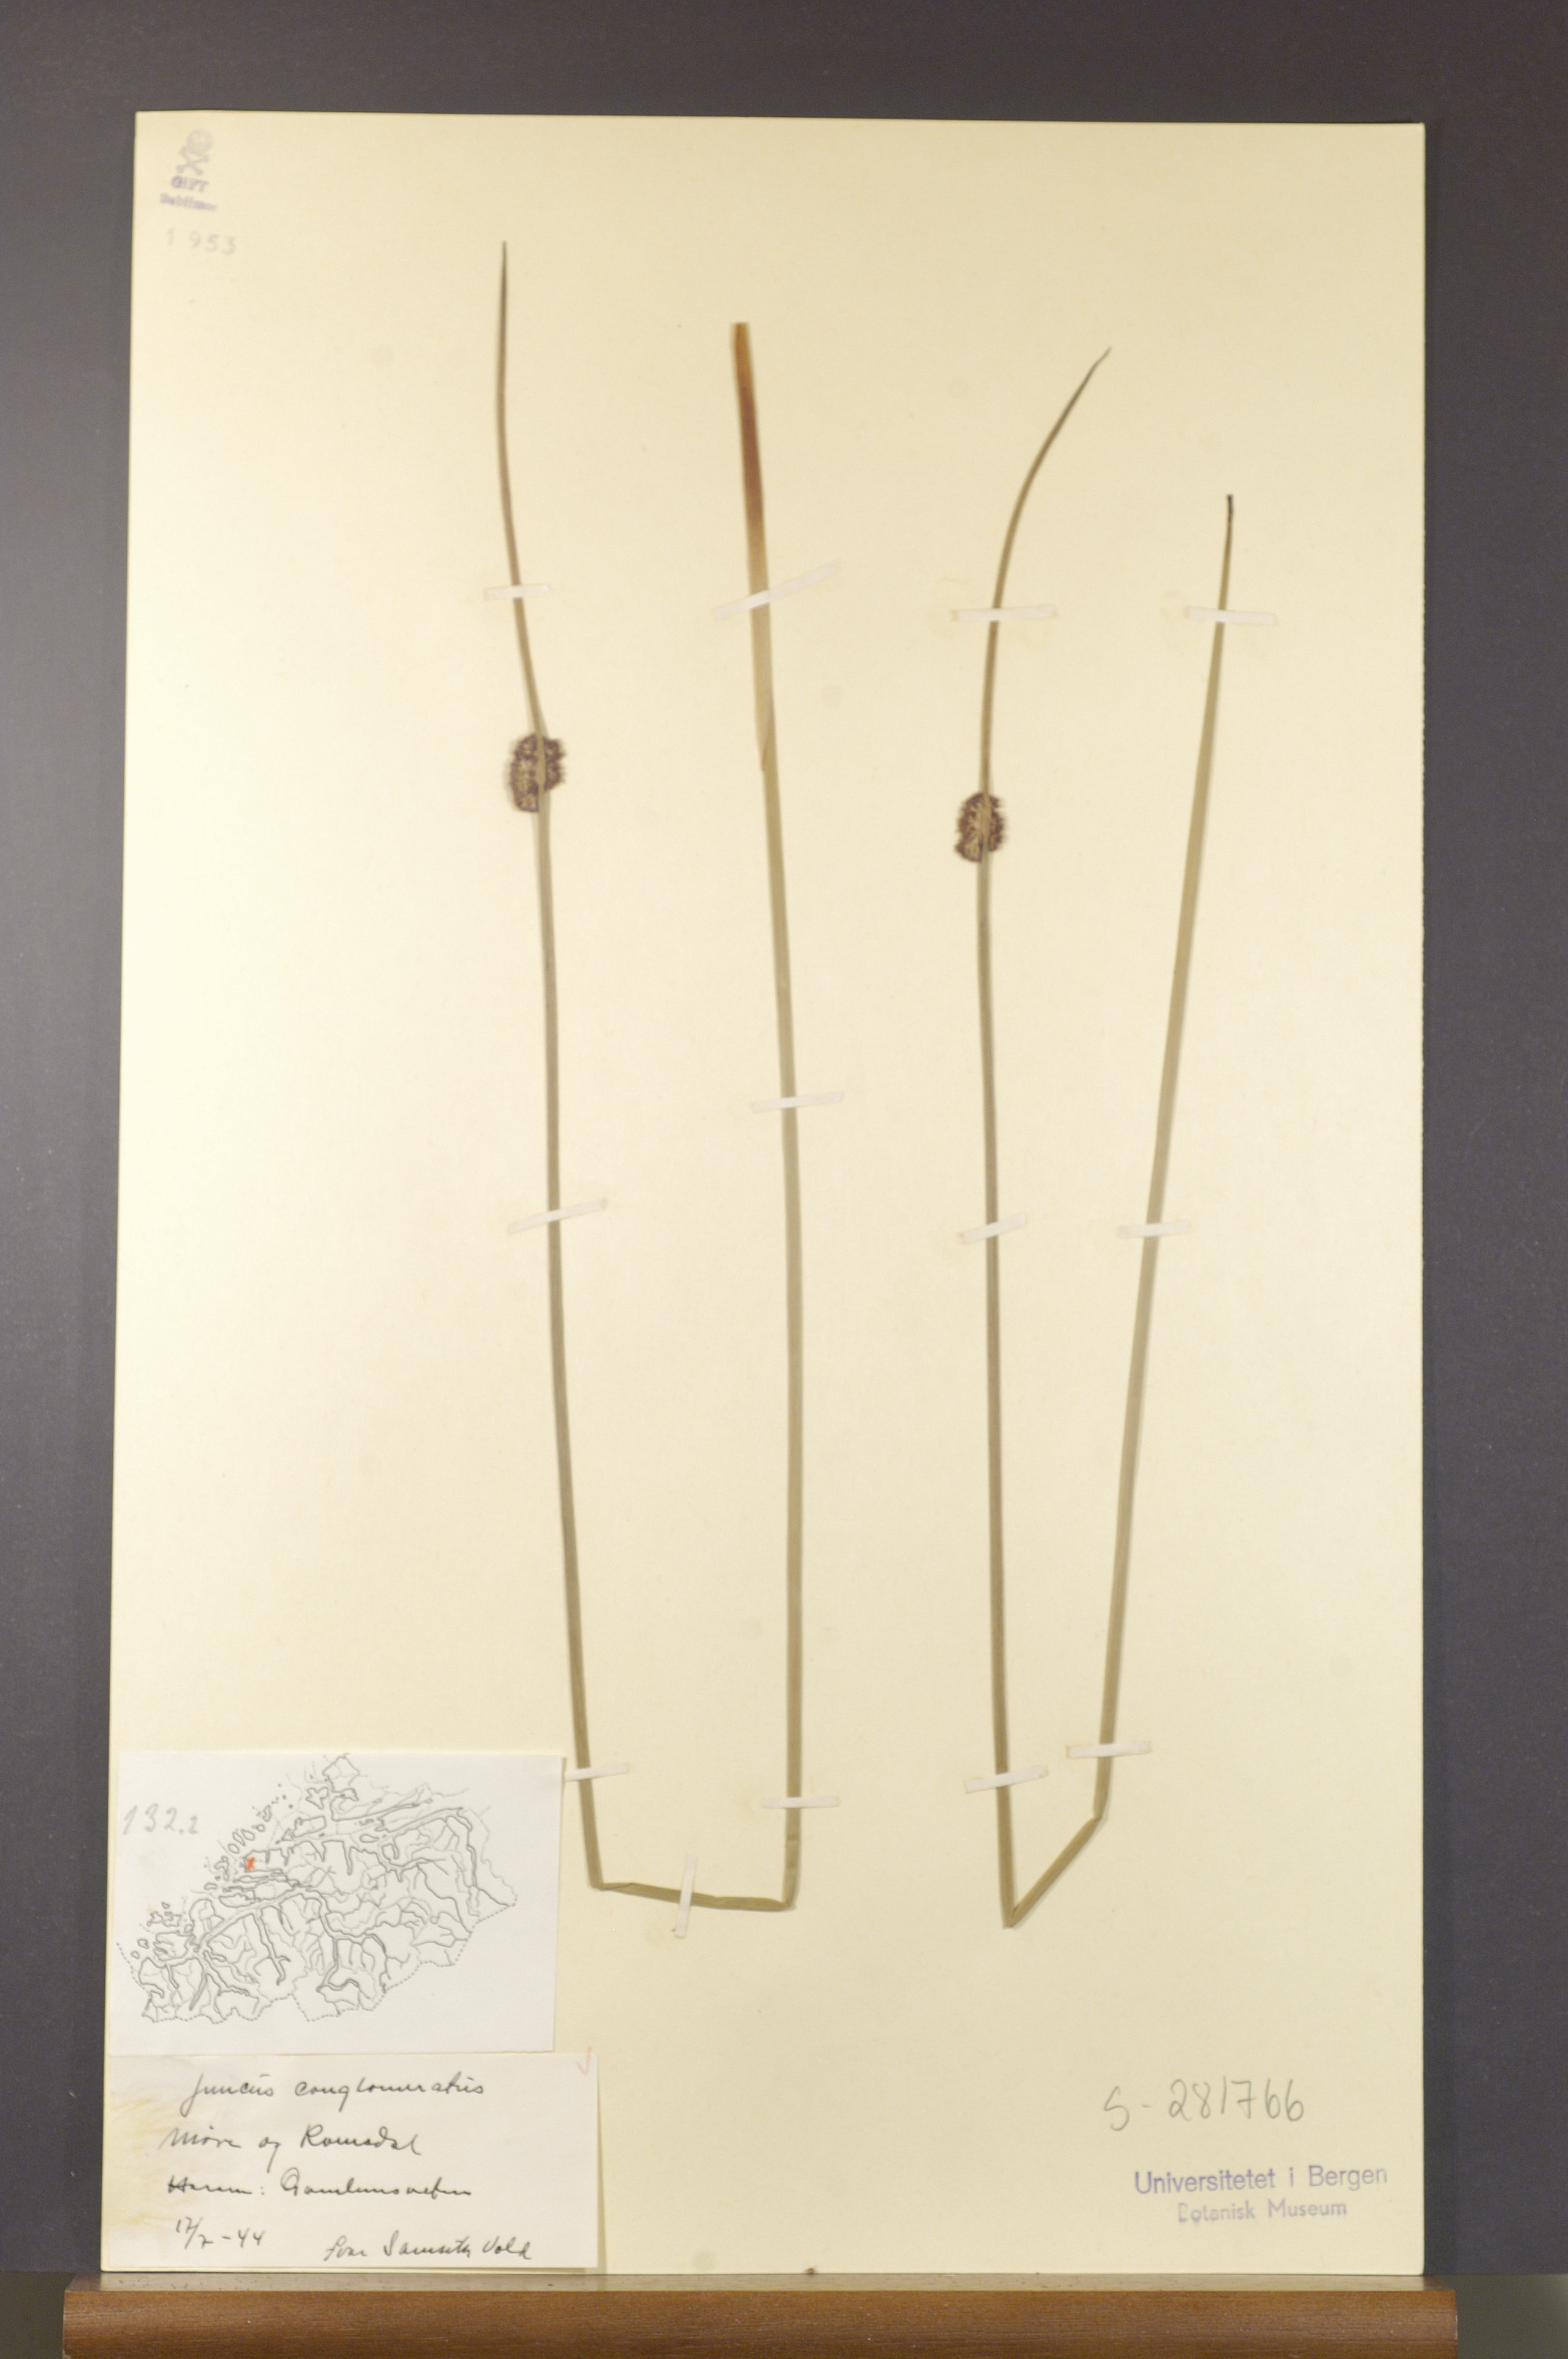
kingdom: Plantae
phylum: Tracheophyta
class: Liliopsida
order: Poales
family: Juncaceae
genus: Juncus
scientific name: Juncus conglomeratus
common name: Compact rush
